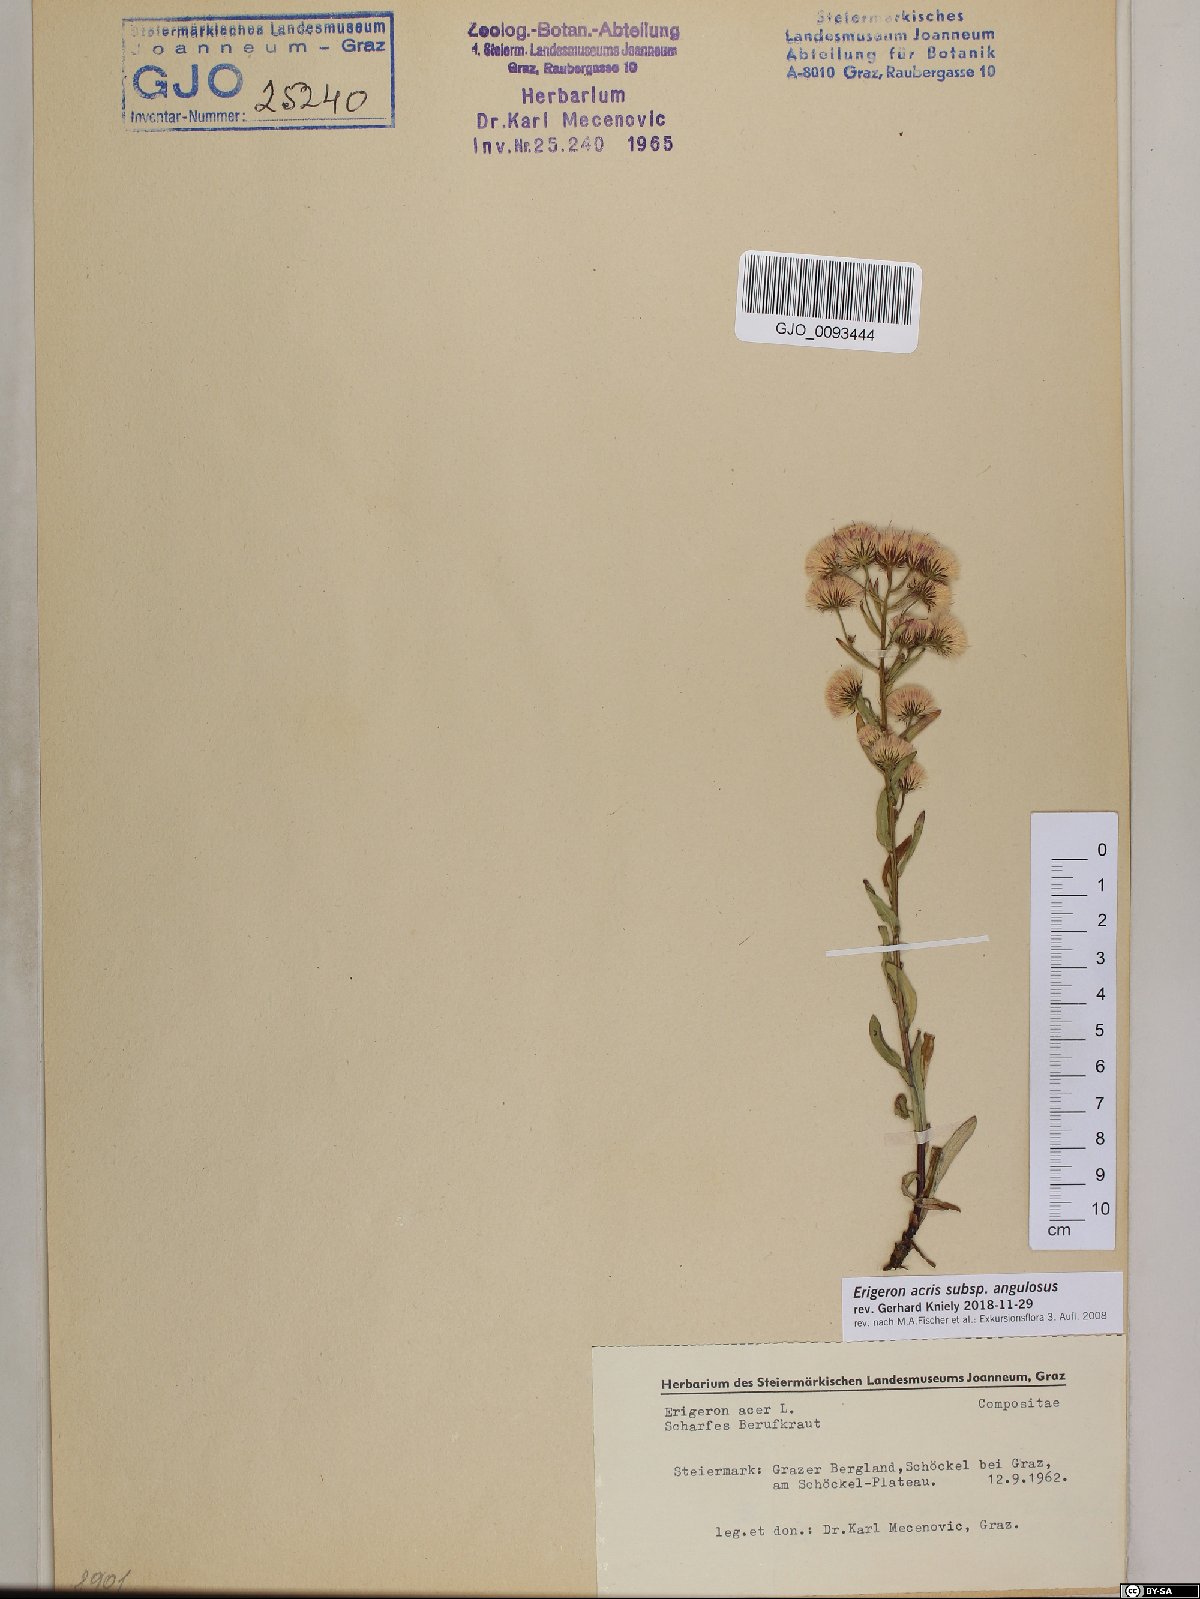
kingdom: Plantae
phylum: Tracheophyta
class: Magnoliopsida
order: Asterales
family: Asteraceae
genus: Erigeron
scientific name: Erigeron angulosus
